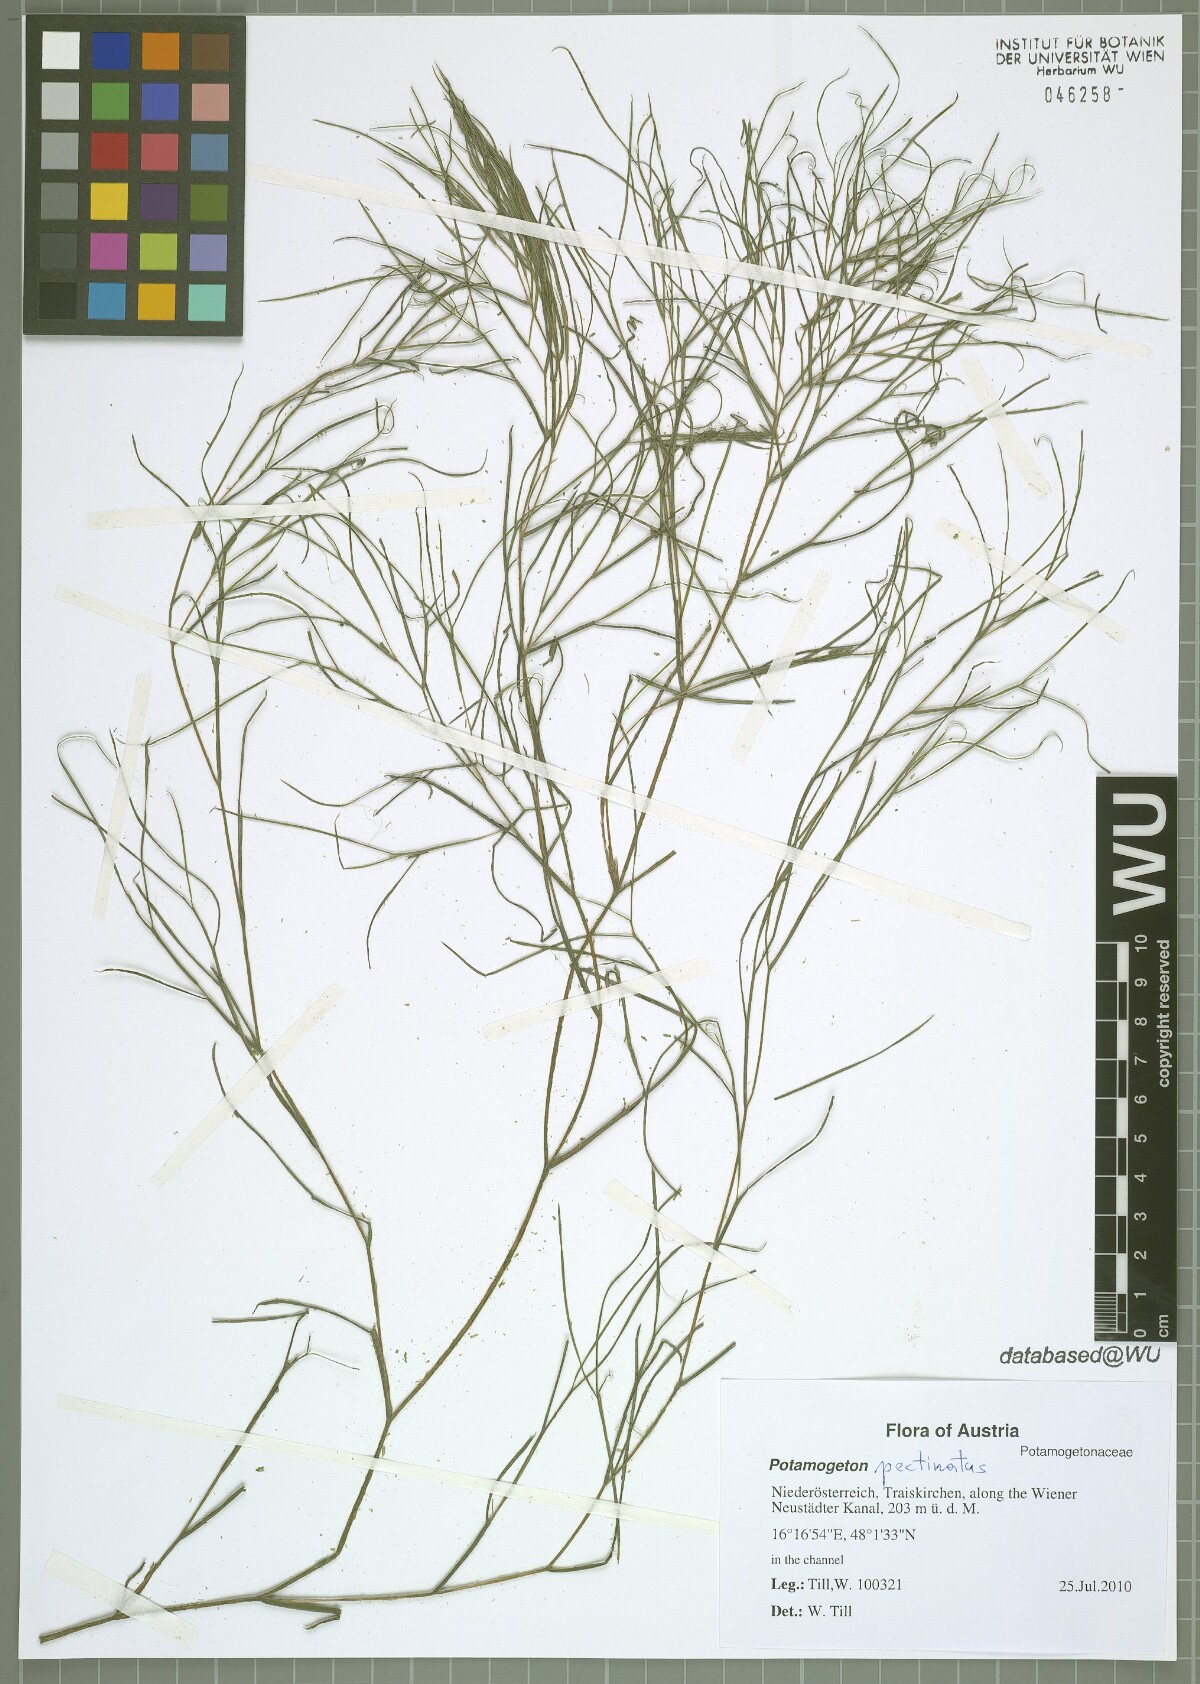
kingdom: Plantae
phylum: Tracheophyta
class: Liliopsida
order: Alismatales
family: Potamogetonaceae
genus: Stuckenia
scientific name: Stuckenia pectinata
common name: Sago pondweed
